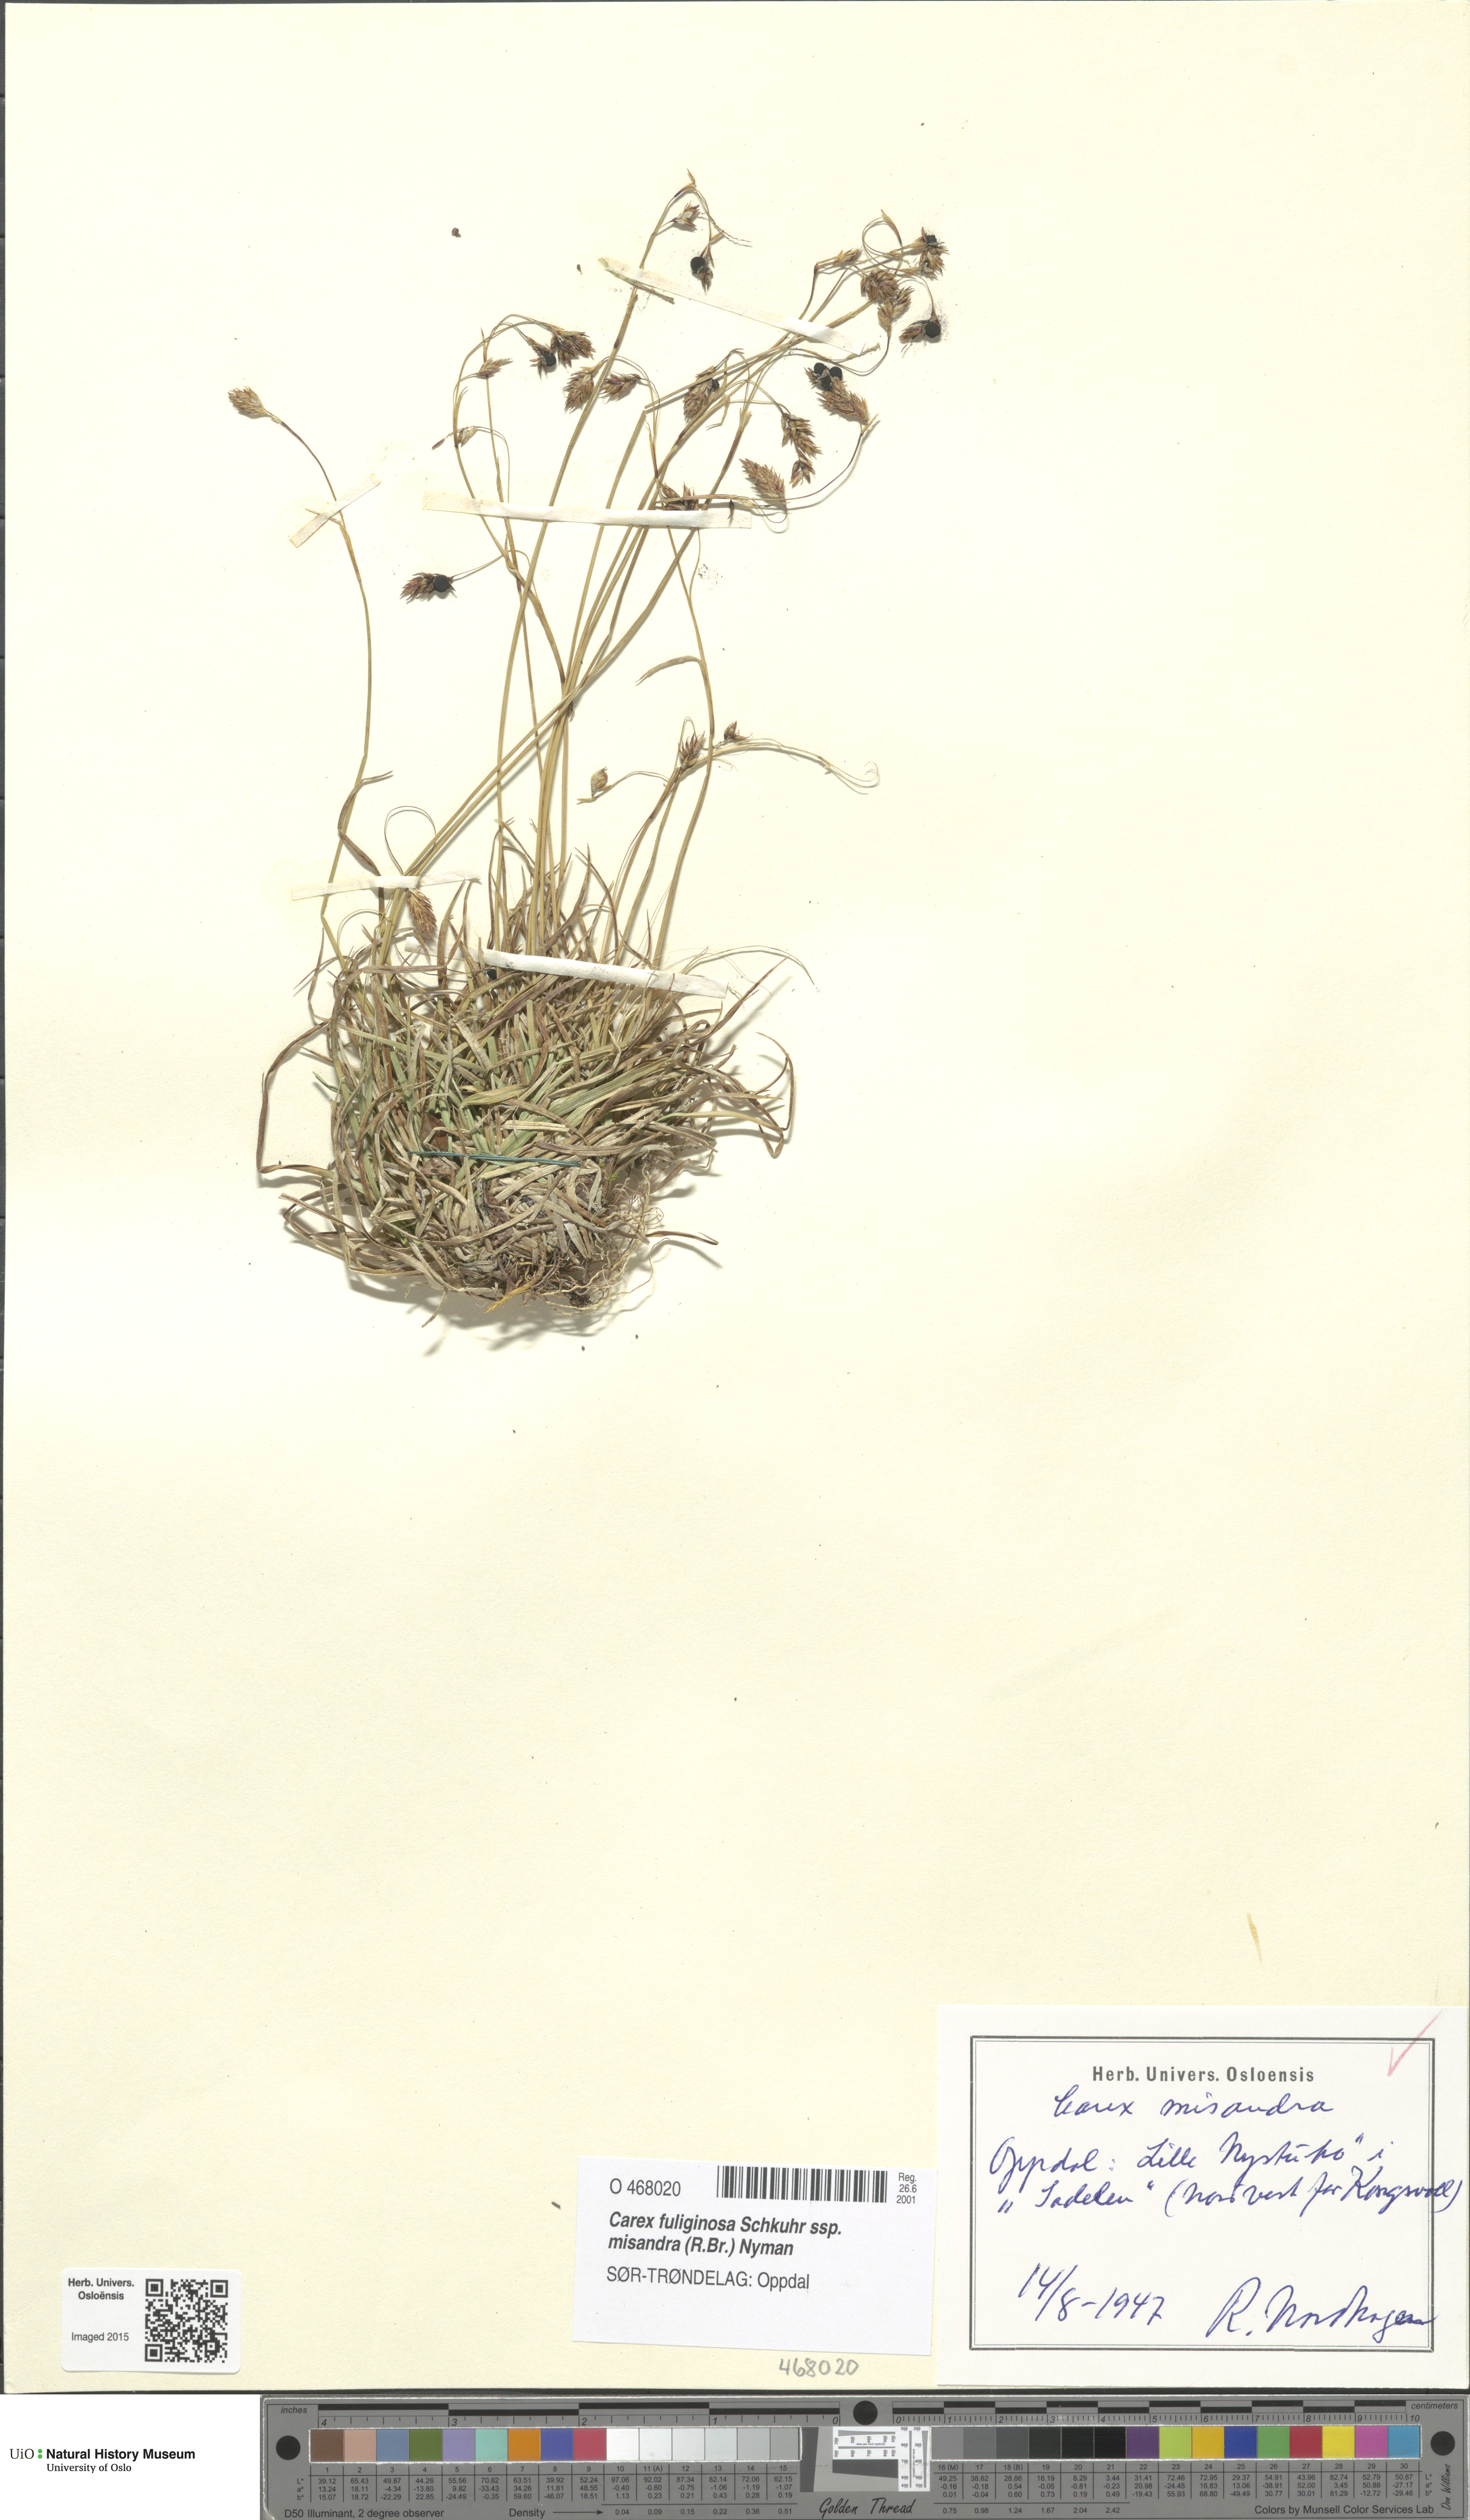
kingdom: Plantae
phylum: Tracheophyta
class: Liliopsida
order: Poales
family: Cyperaceae
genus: Carex
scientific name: Carex fuliginosa
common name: Few-flowered sedge
